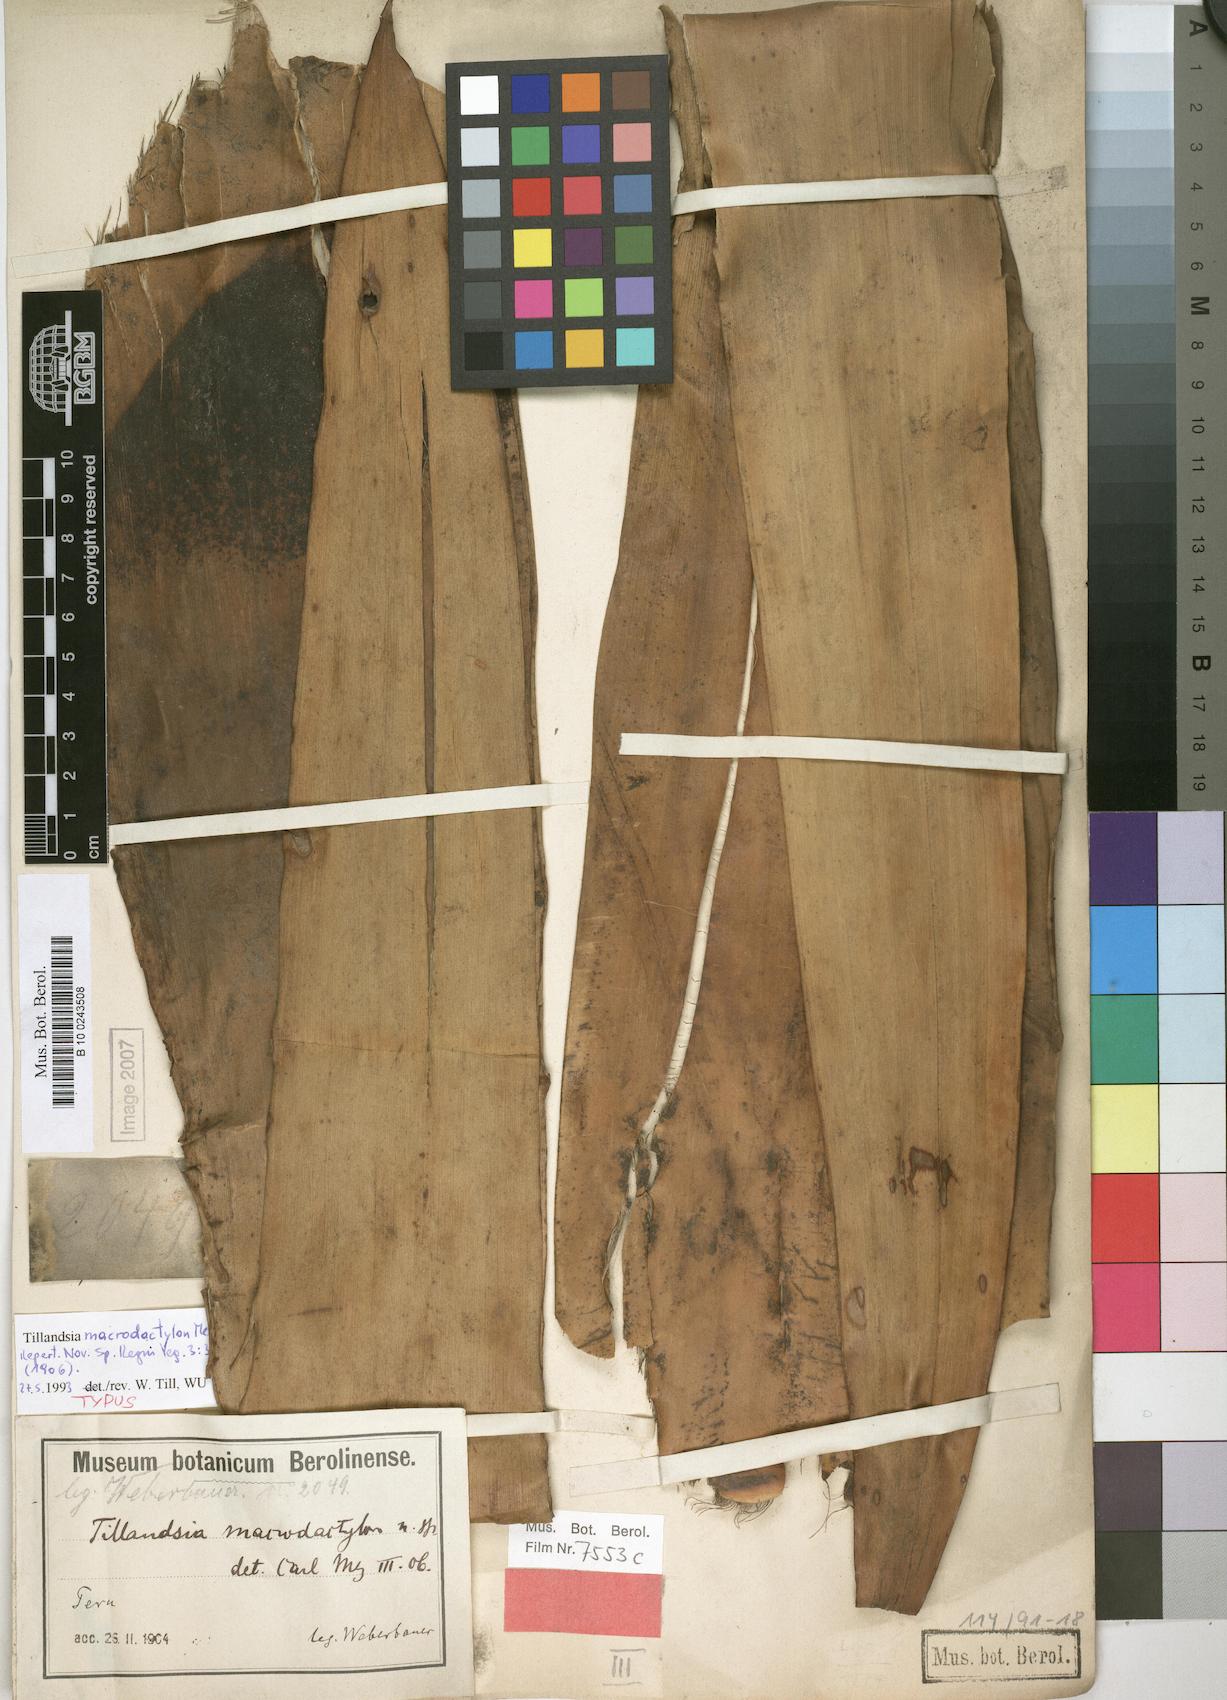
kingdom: Plantae
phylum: Tracheophyta
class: Liliopsida
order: Poales
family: Bromeliaceae
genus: Tillandsia
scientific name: Tillandsia macrodactylon
